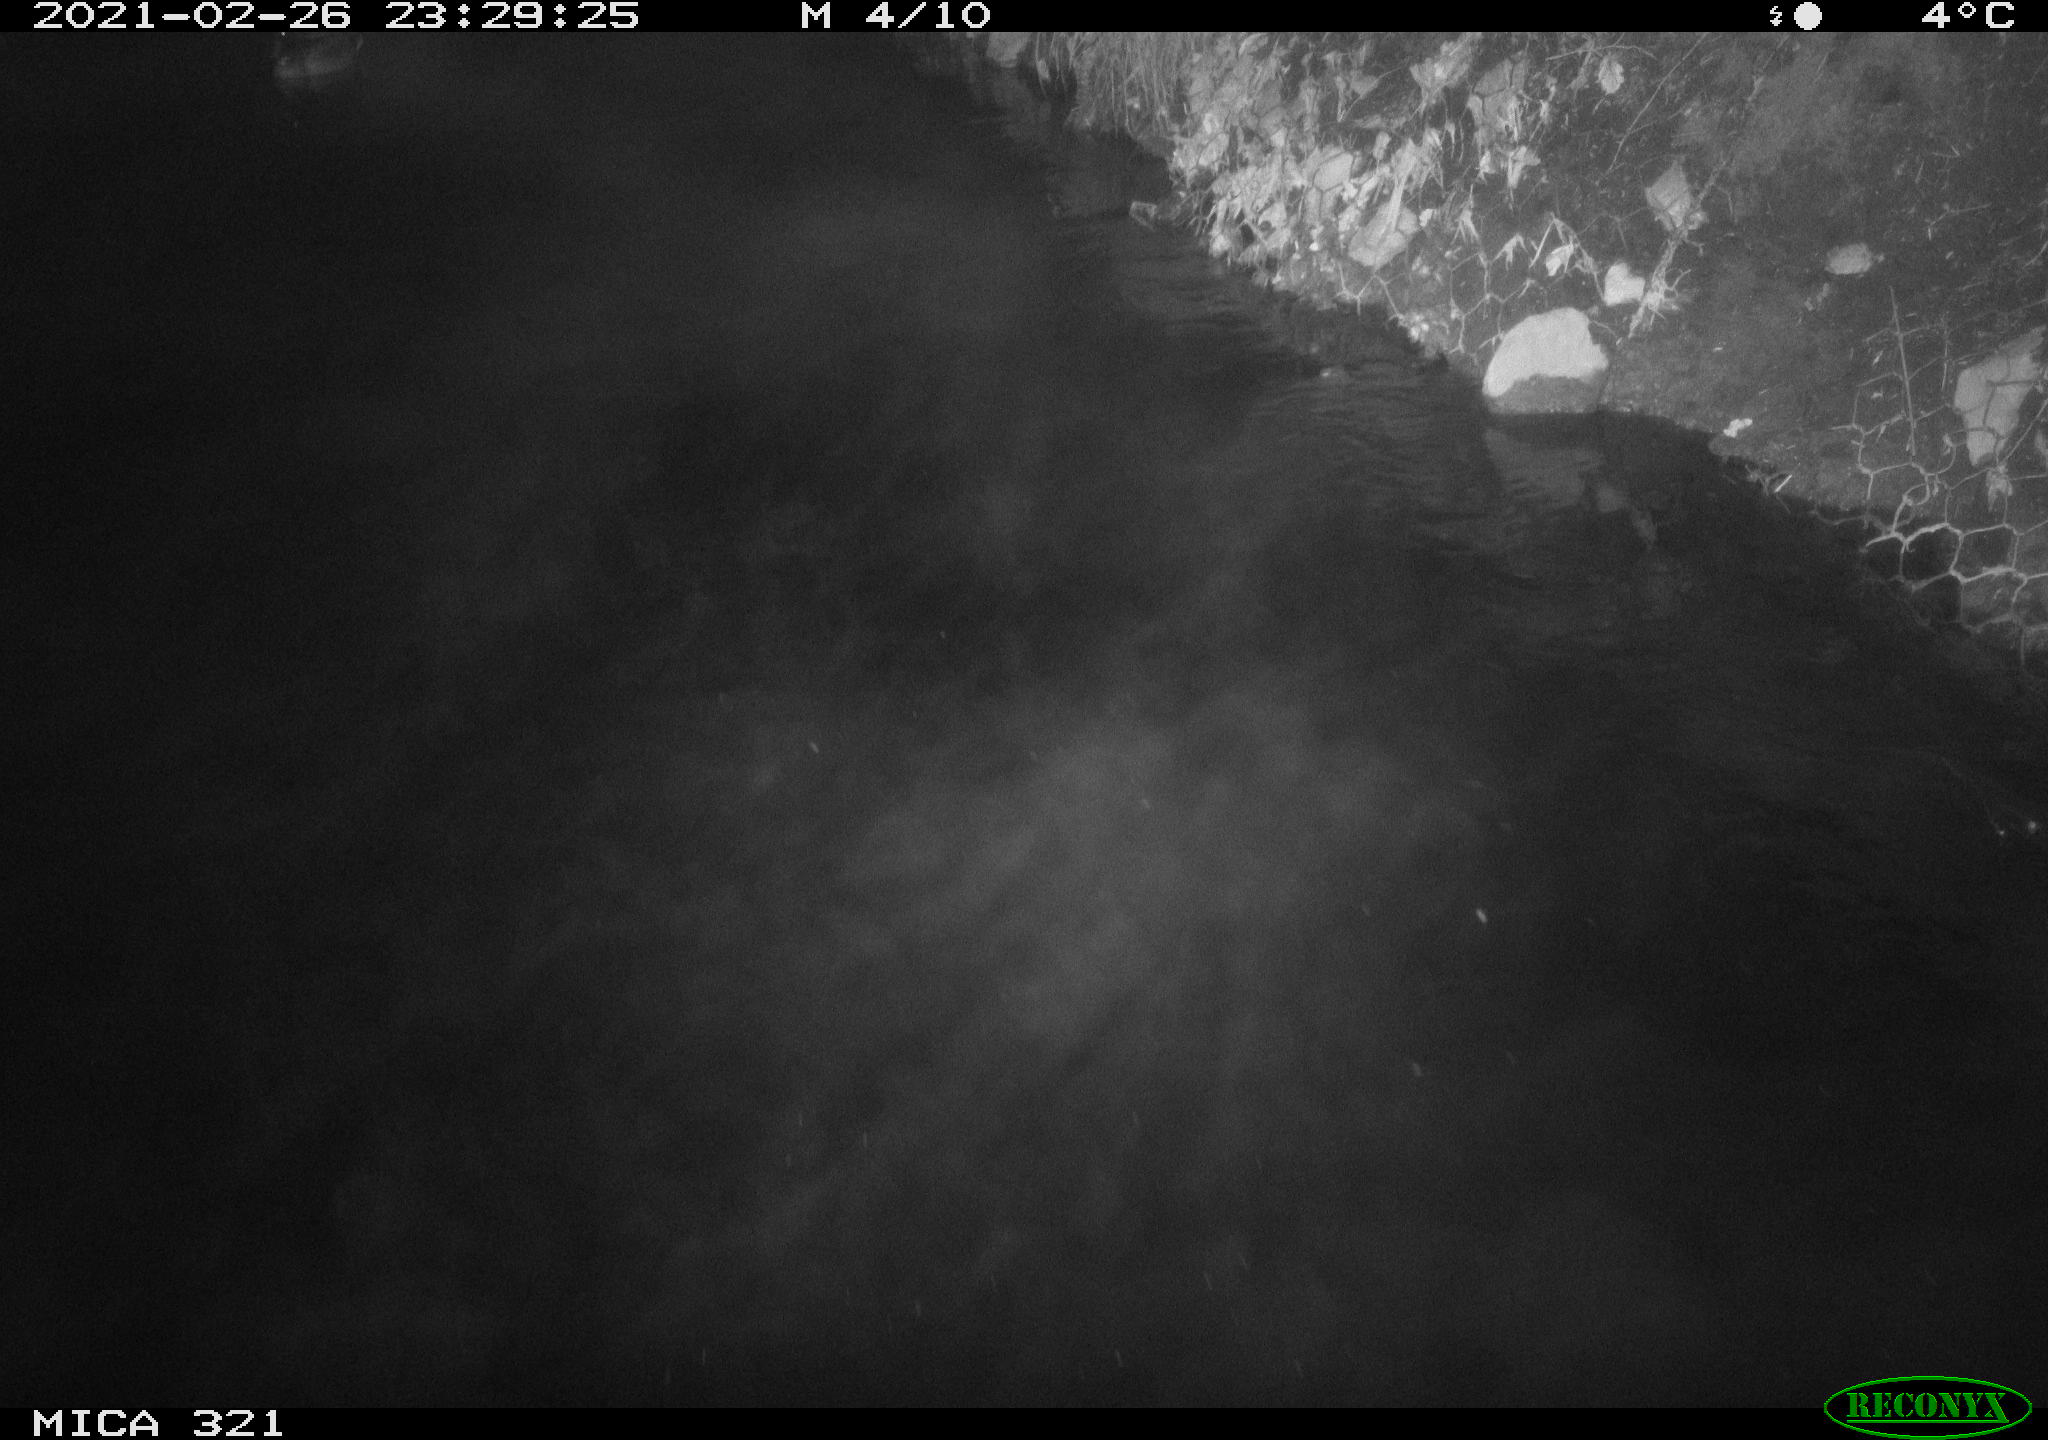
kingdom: Animalia
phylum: Chordata
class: Aves
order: Anseriformes
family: Anatidae
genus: Anas
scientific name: Anas platyrhynchos
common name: Mallard
